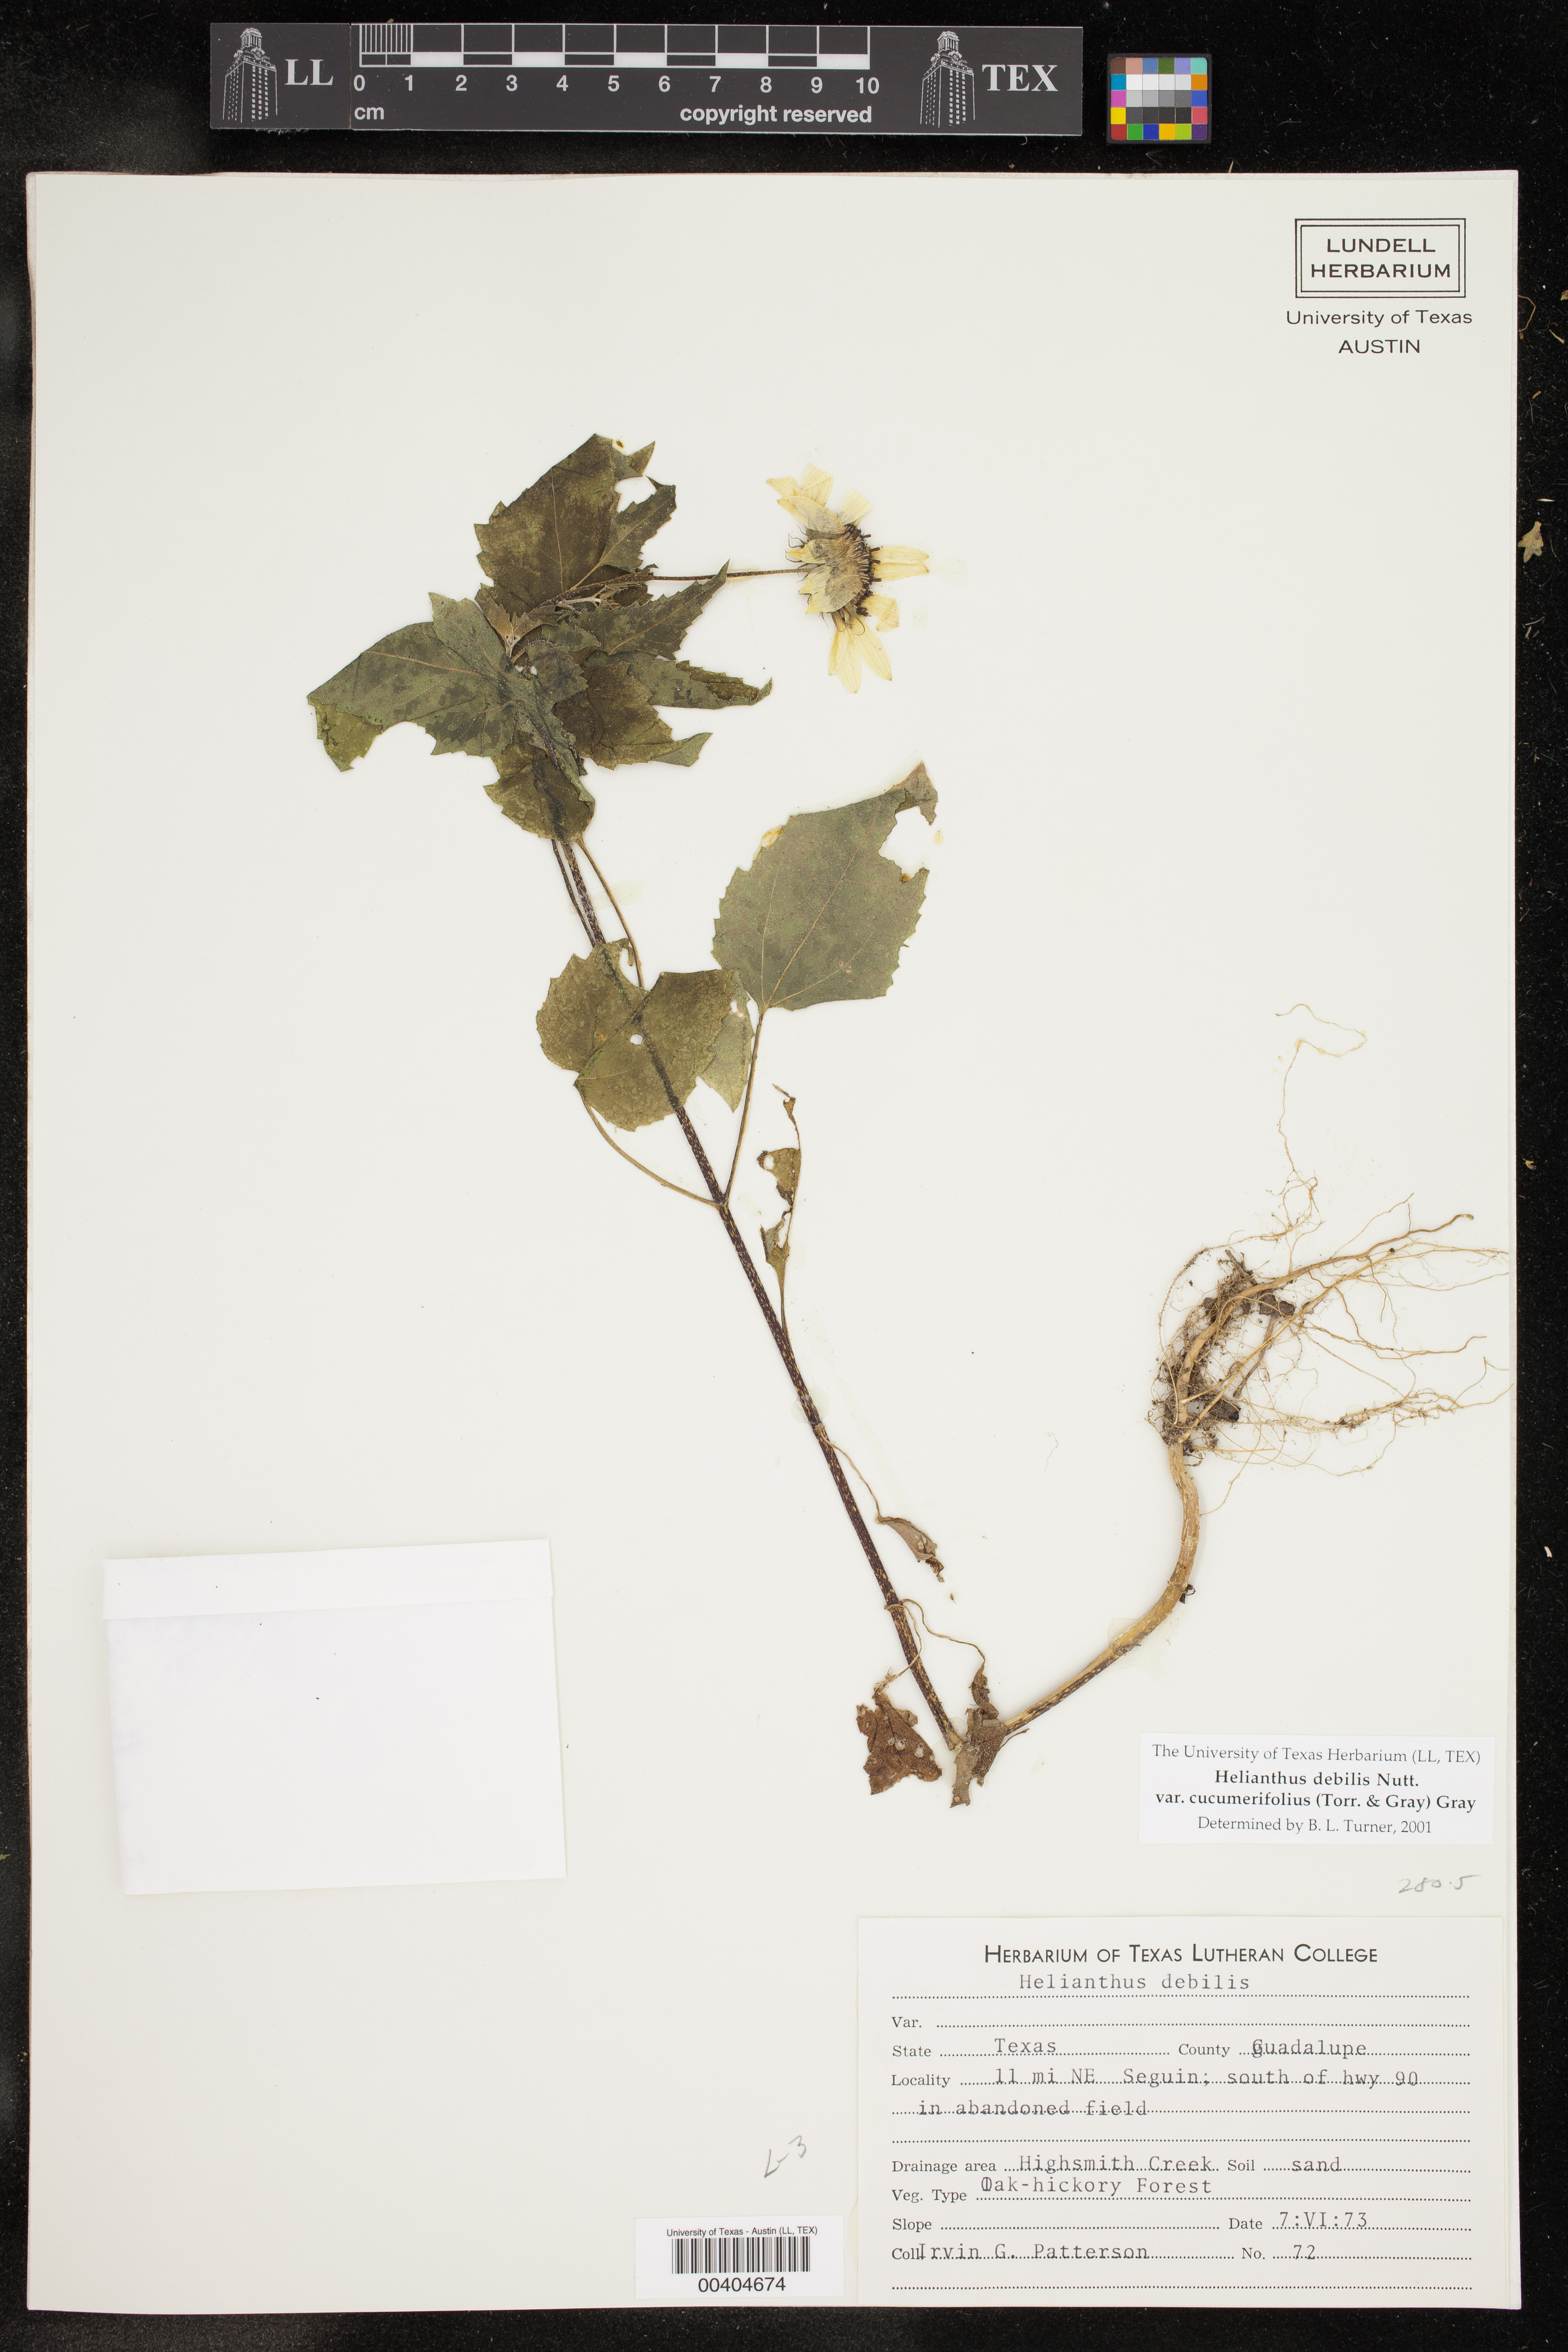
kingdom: Plantae
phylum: Tracheophyta
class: Magnoliopsida
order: Asterales
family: Asteraceae
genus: Helianthus
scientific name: Helianthus debilis
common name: Weak sunflower
